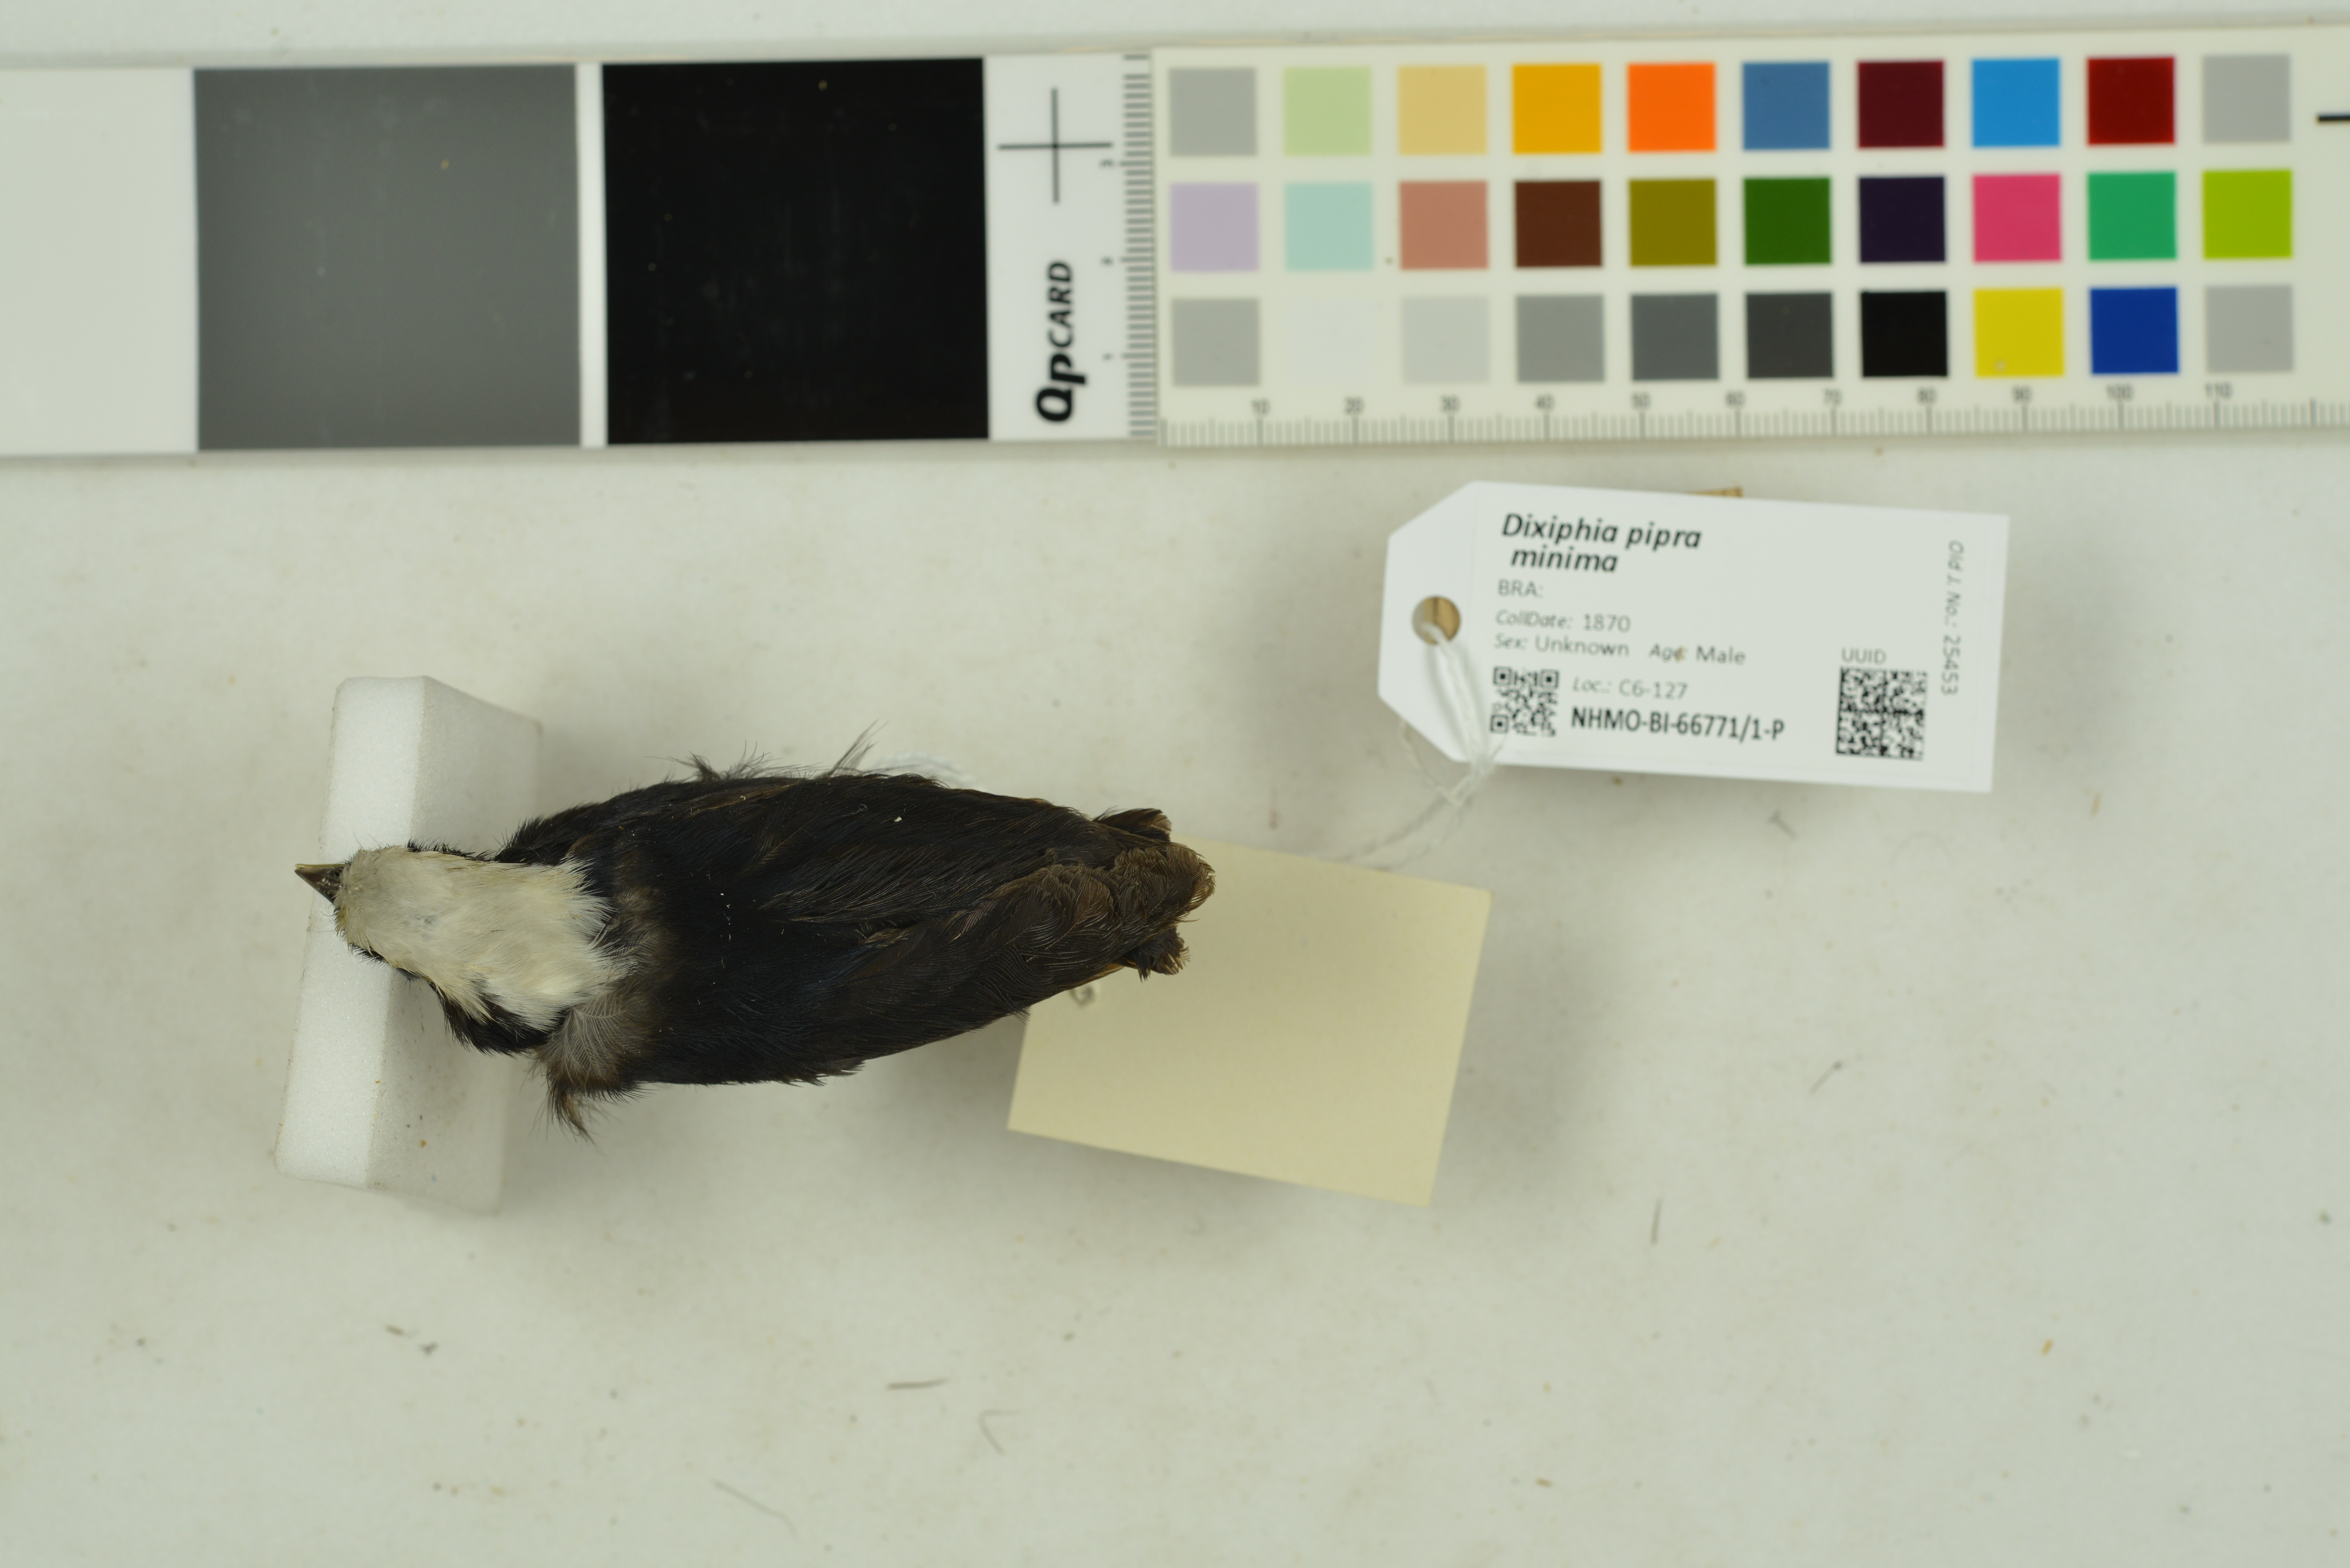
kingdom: Animalia
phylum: Chordata
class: Aves
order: Passeriformes
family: Pipridae
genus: Pipra
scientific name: Pipra pipra
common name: White-crowned manakin
